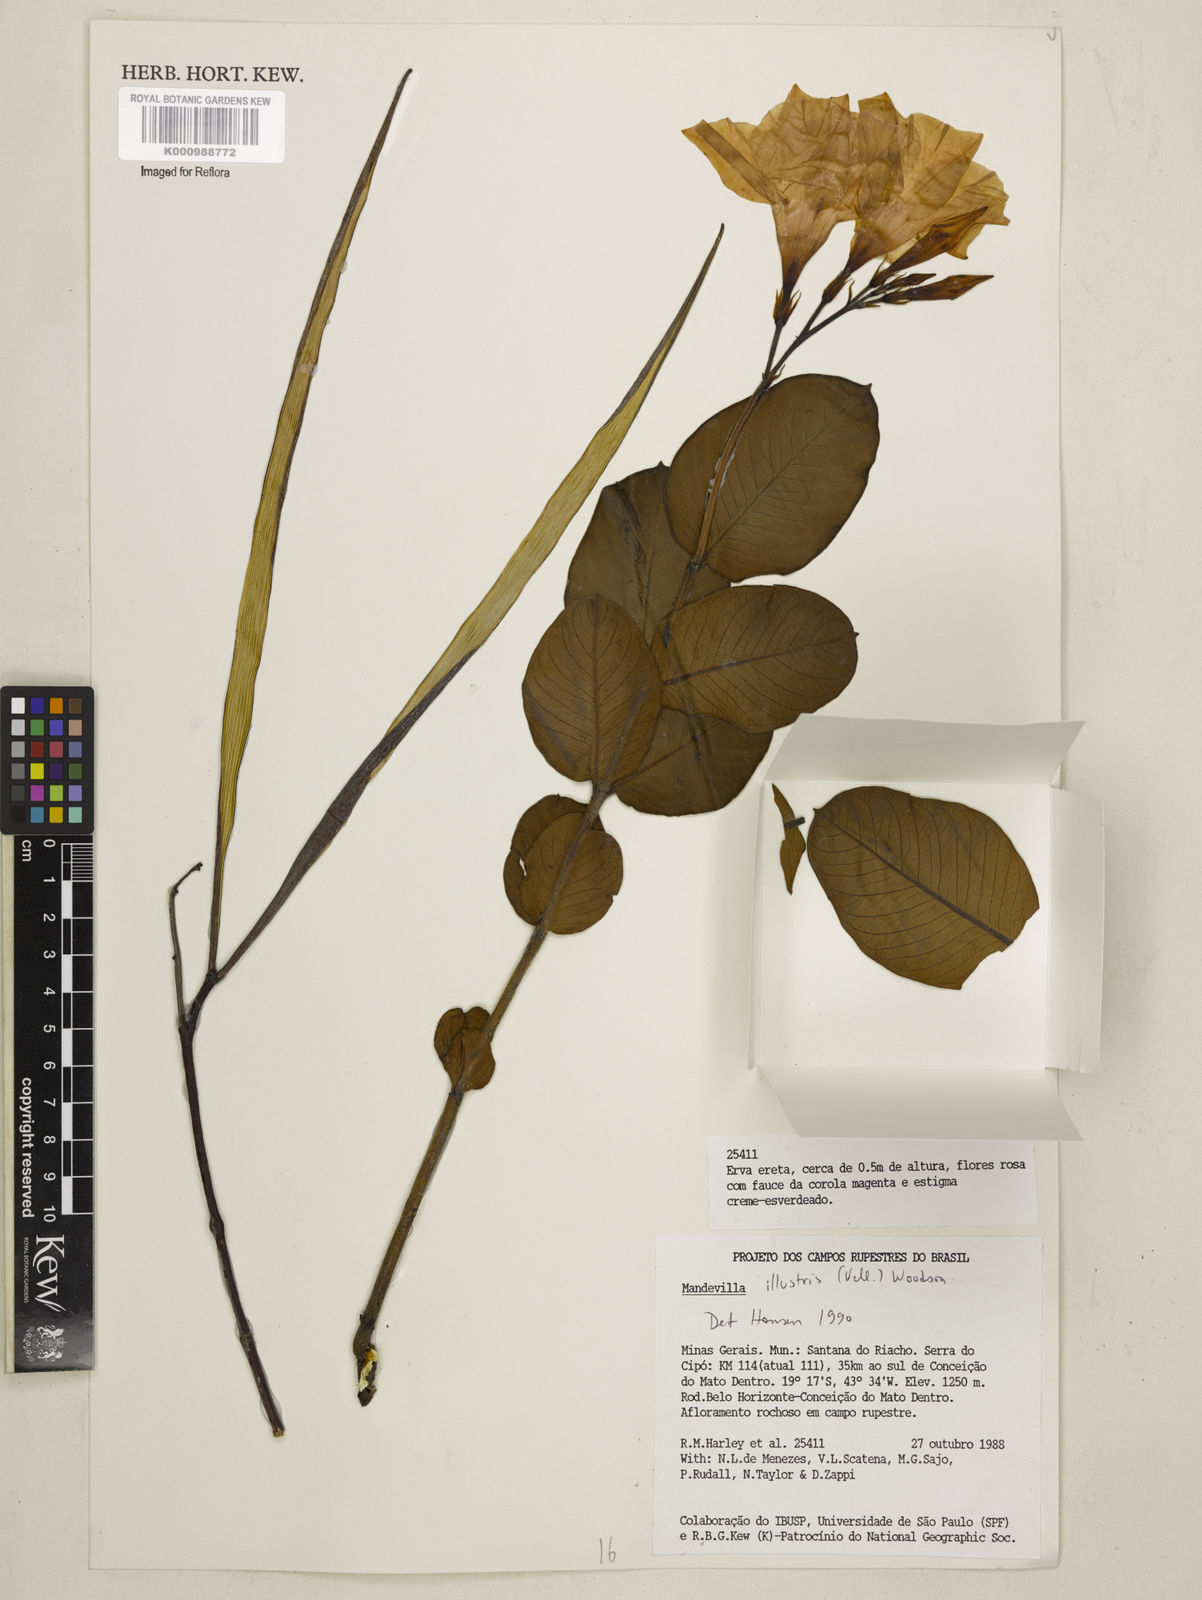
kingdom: Plantae
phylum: Tracheophyta
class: Magnoliopsida
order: Gentianales
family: Apocynaceae
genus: Mandevilla
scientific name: Mandevilla illustris
